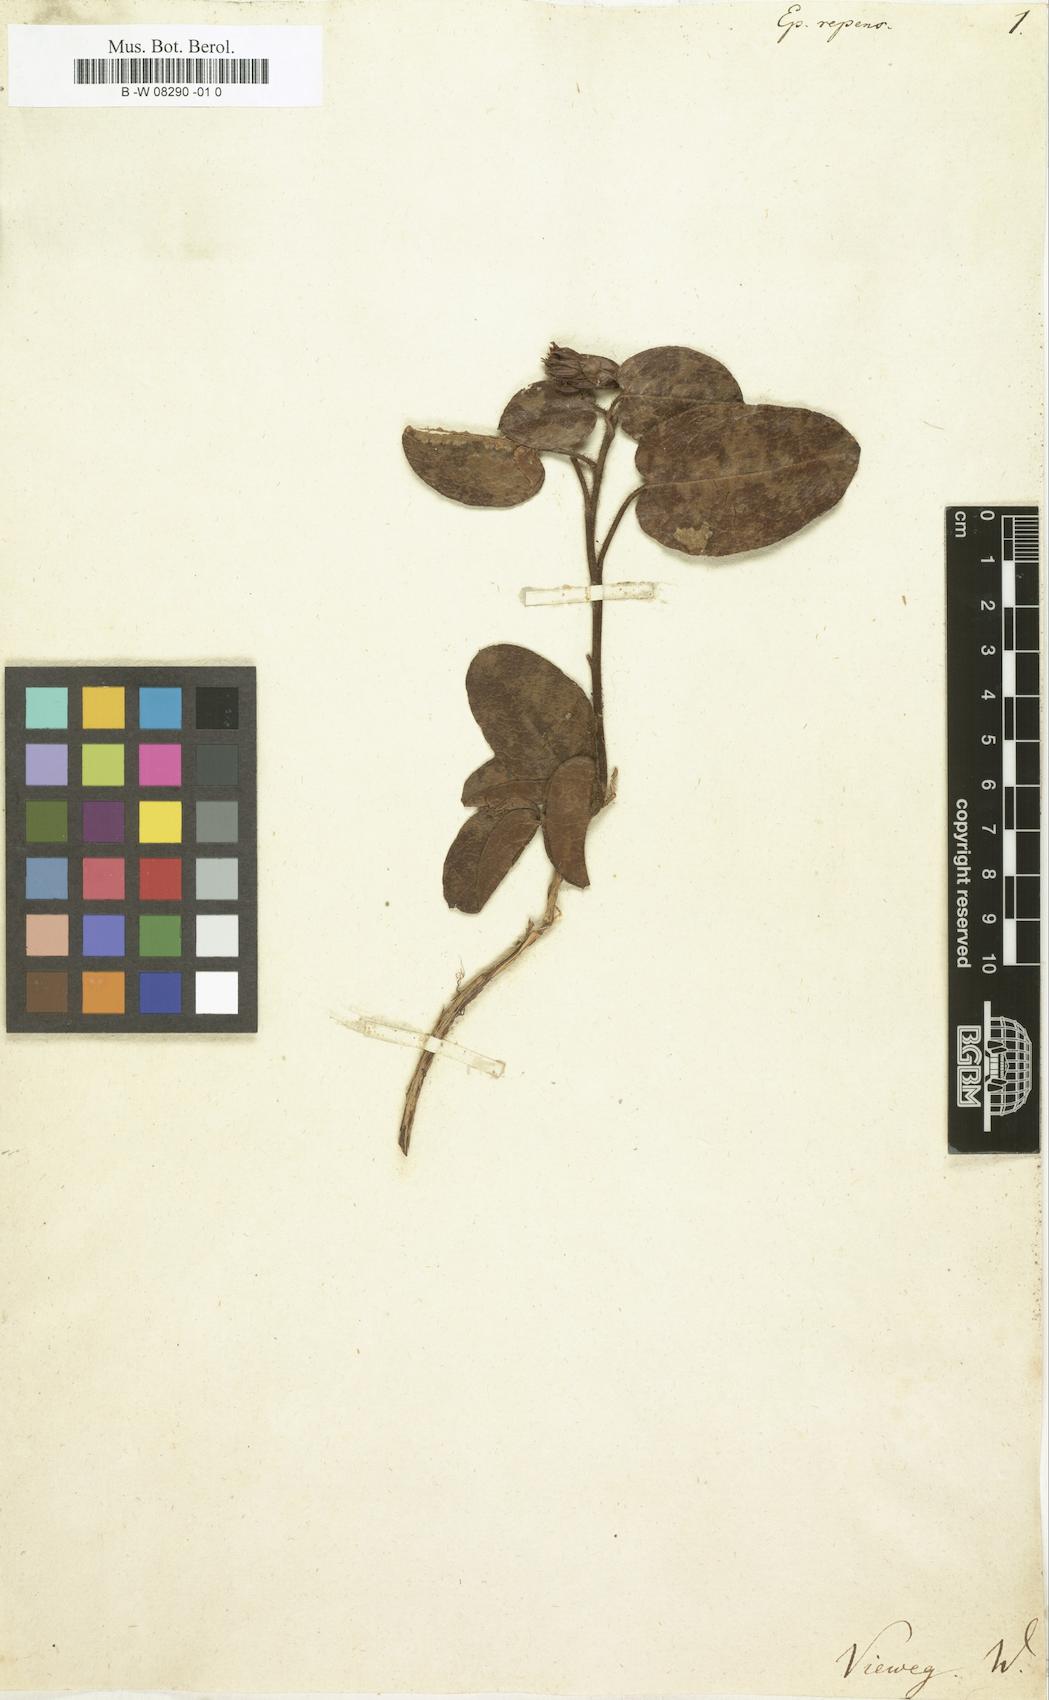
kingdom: Plantae
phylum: Tracheophyta
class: Magnoliopsida
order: Ericales
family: Ericaceae
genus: Epigaea
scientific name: Epigaea repens
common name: Gravelroot
